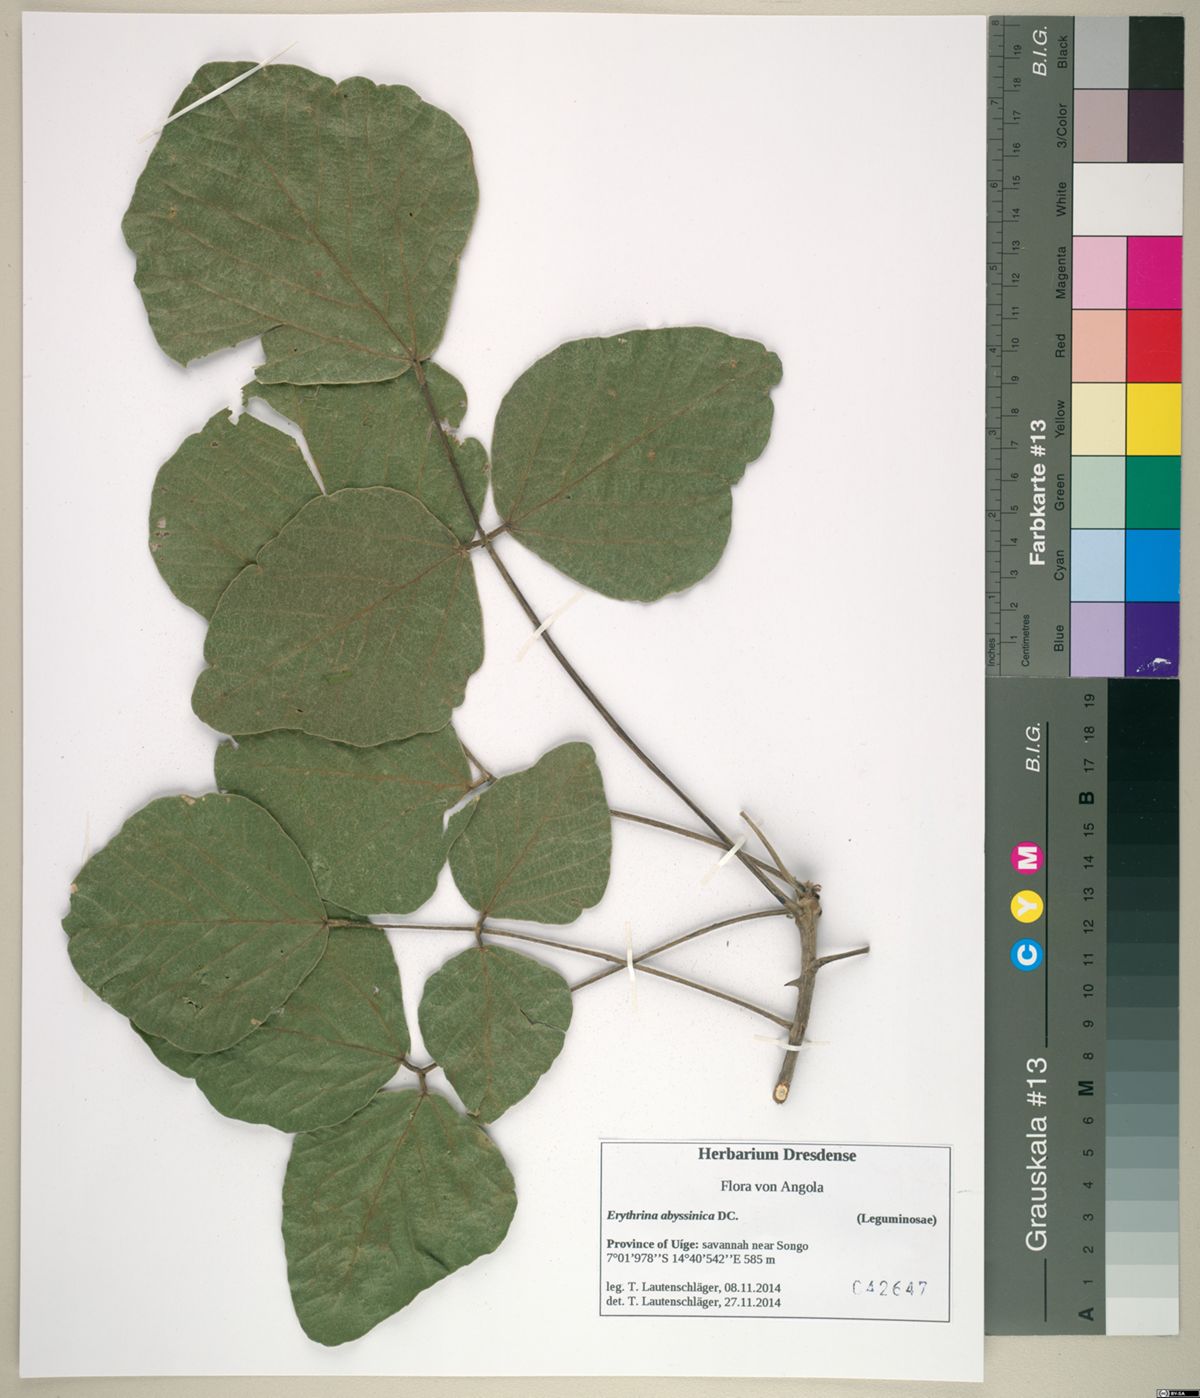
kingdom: Plantae
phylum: Tracheophyta
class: Magnoliopsida
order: Fabales
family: Fabaceae
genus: Erythrina
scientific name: Erythrina abyssinica
